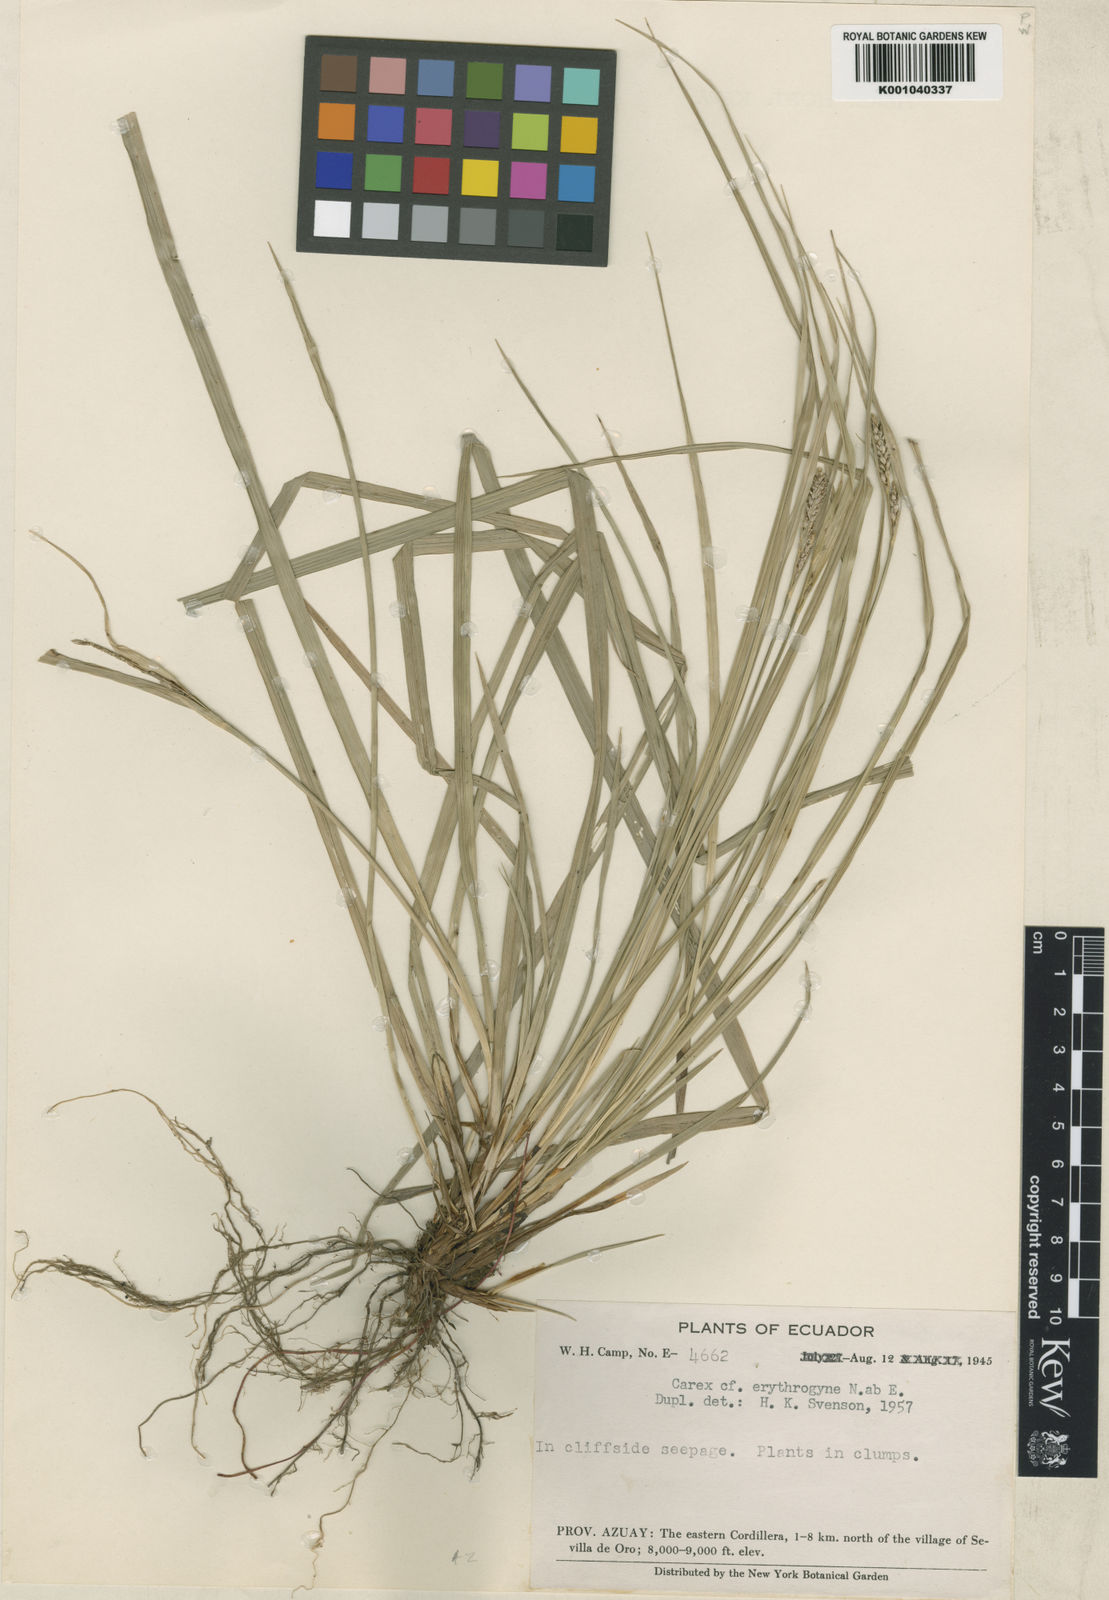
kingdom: Plantae
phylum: Tracheophyta
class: Liliopsida
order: Poales
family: Cyperaceae
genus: Carex
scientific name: Carex
